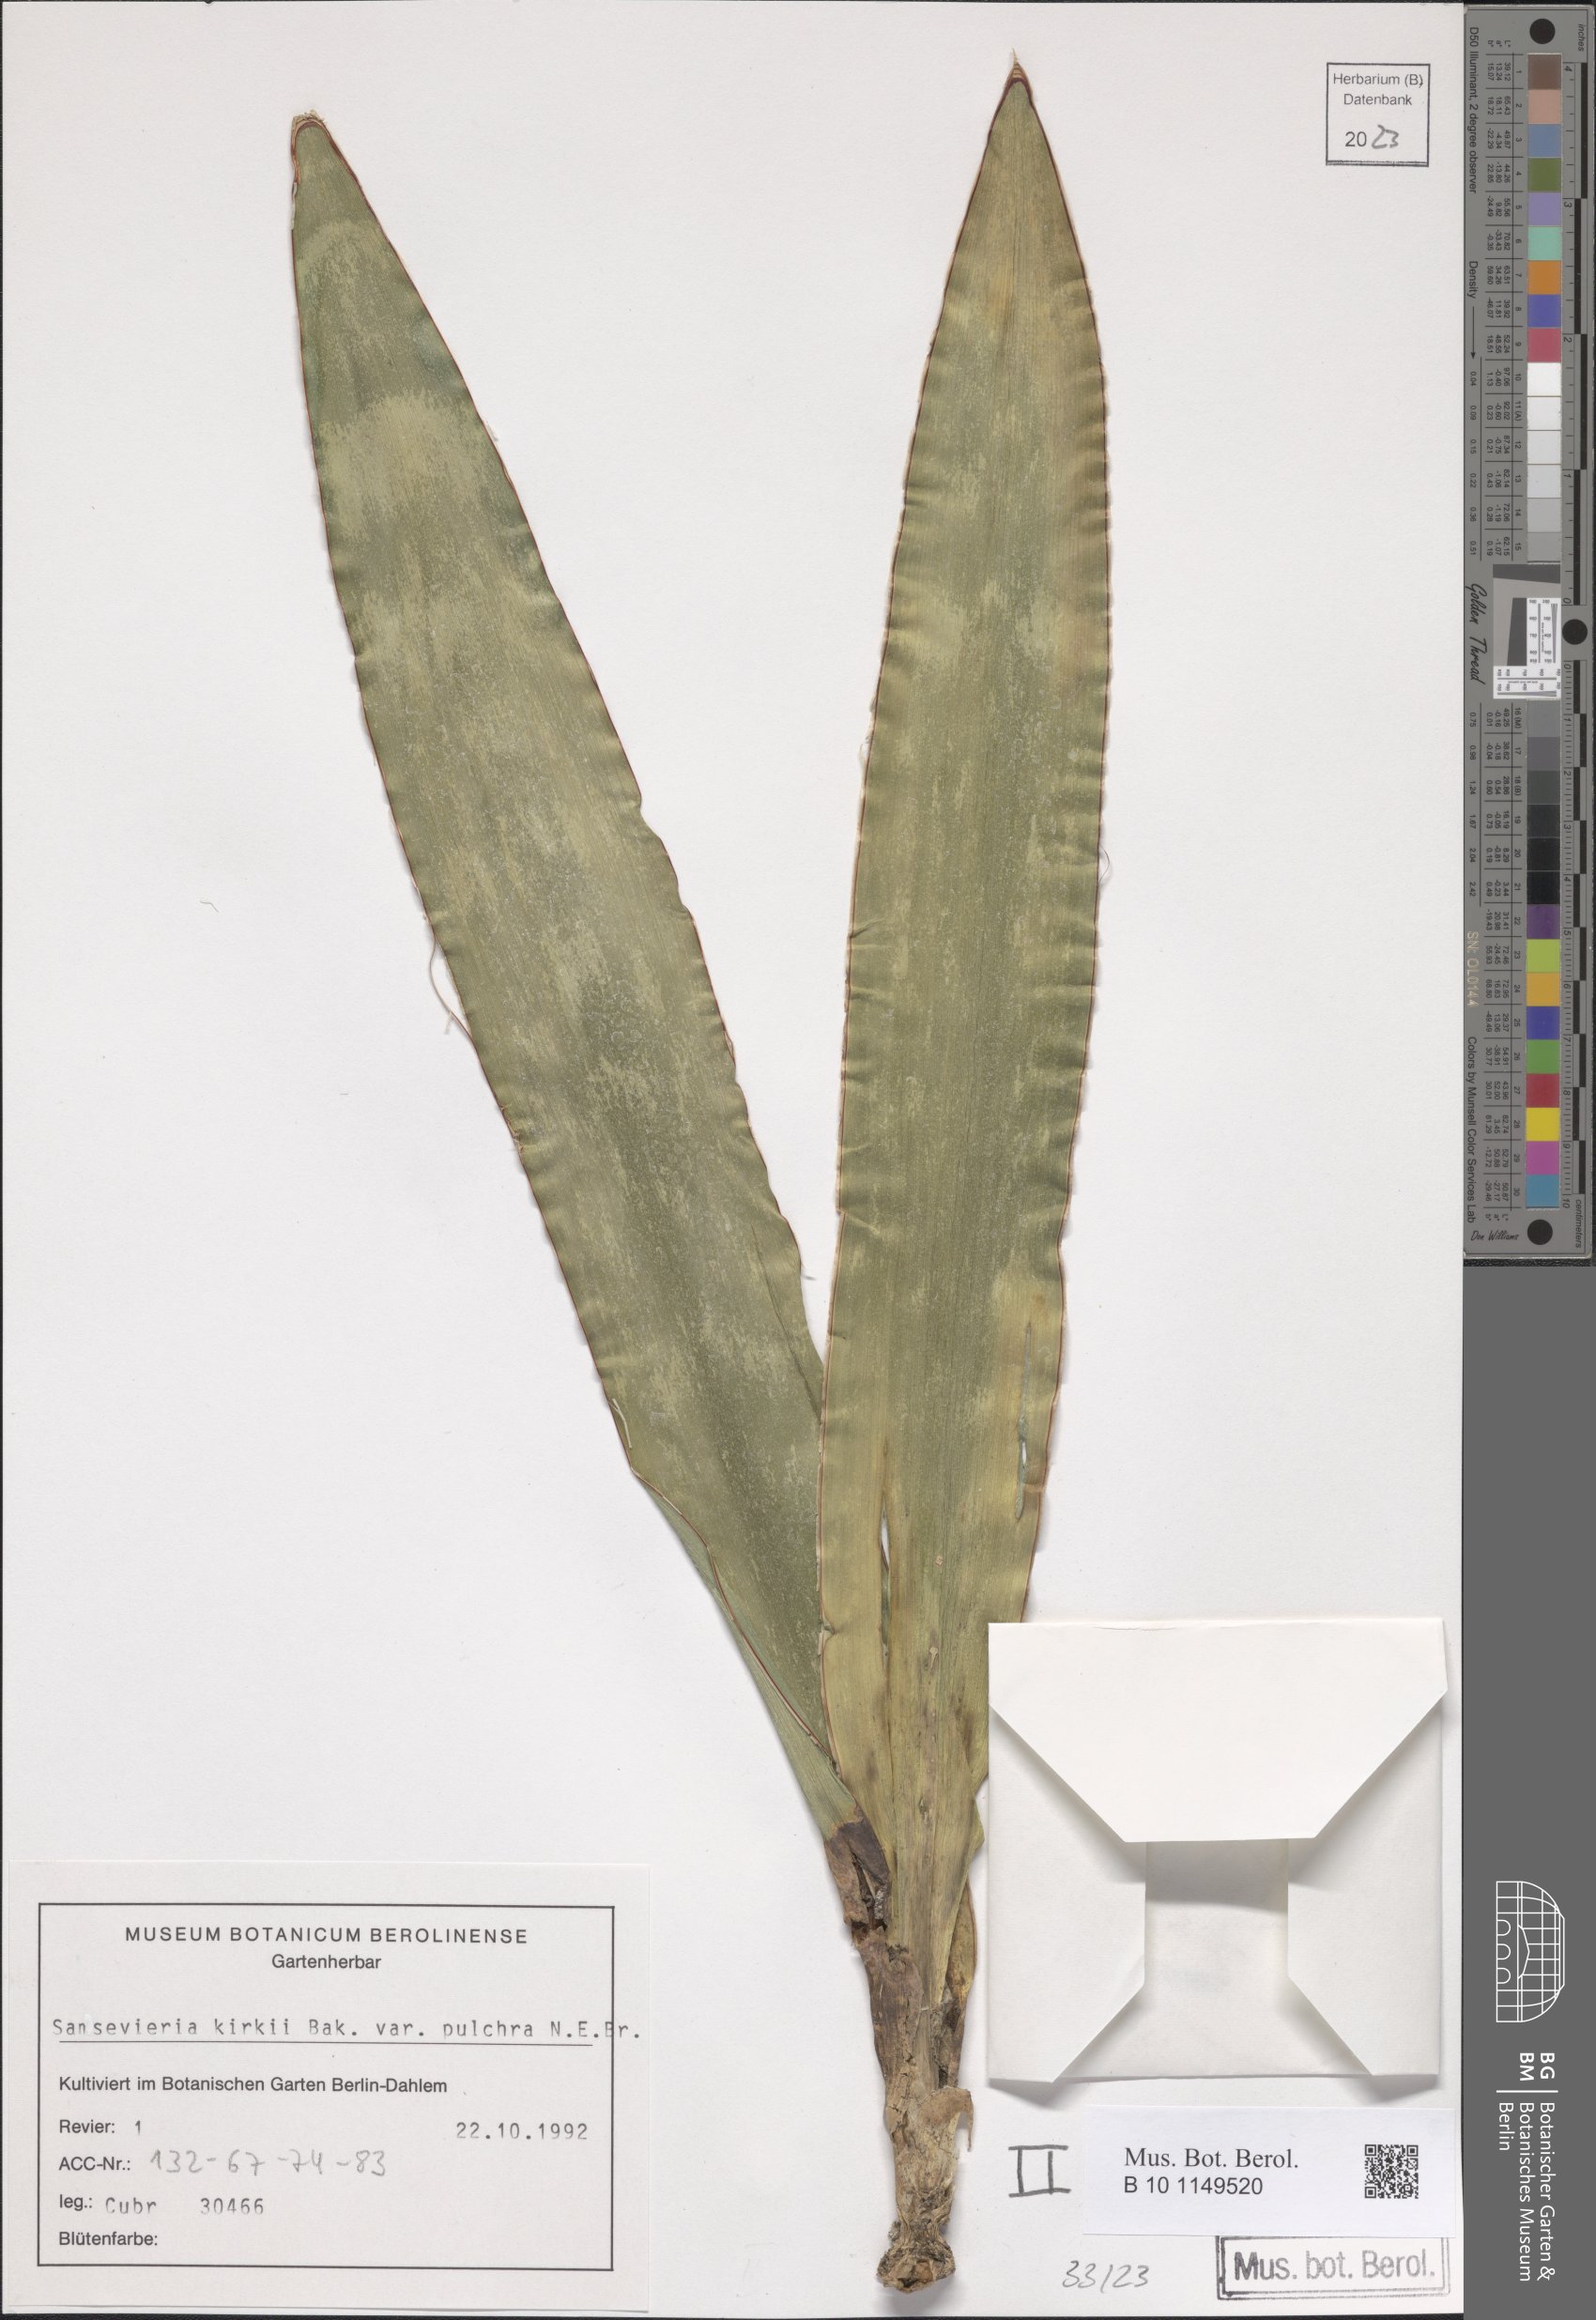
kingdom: Plantae
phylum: Tracheophyta
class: Liliopsida
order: Asparagales
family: Asparagaceae
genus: Dracaena
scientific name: Dracaena pethera
